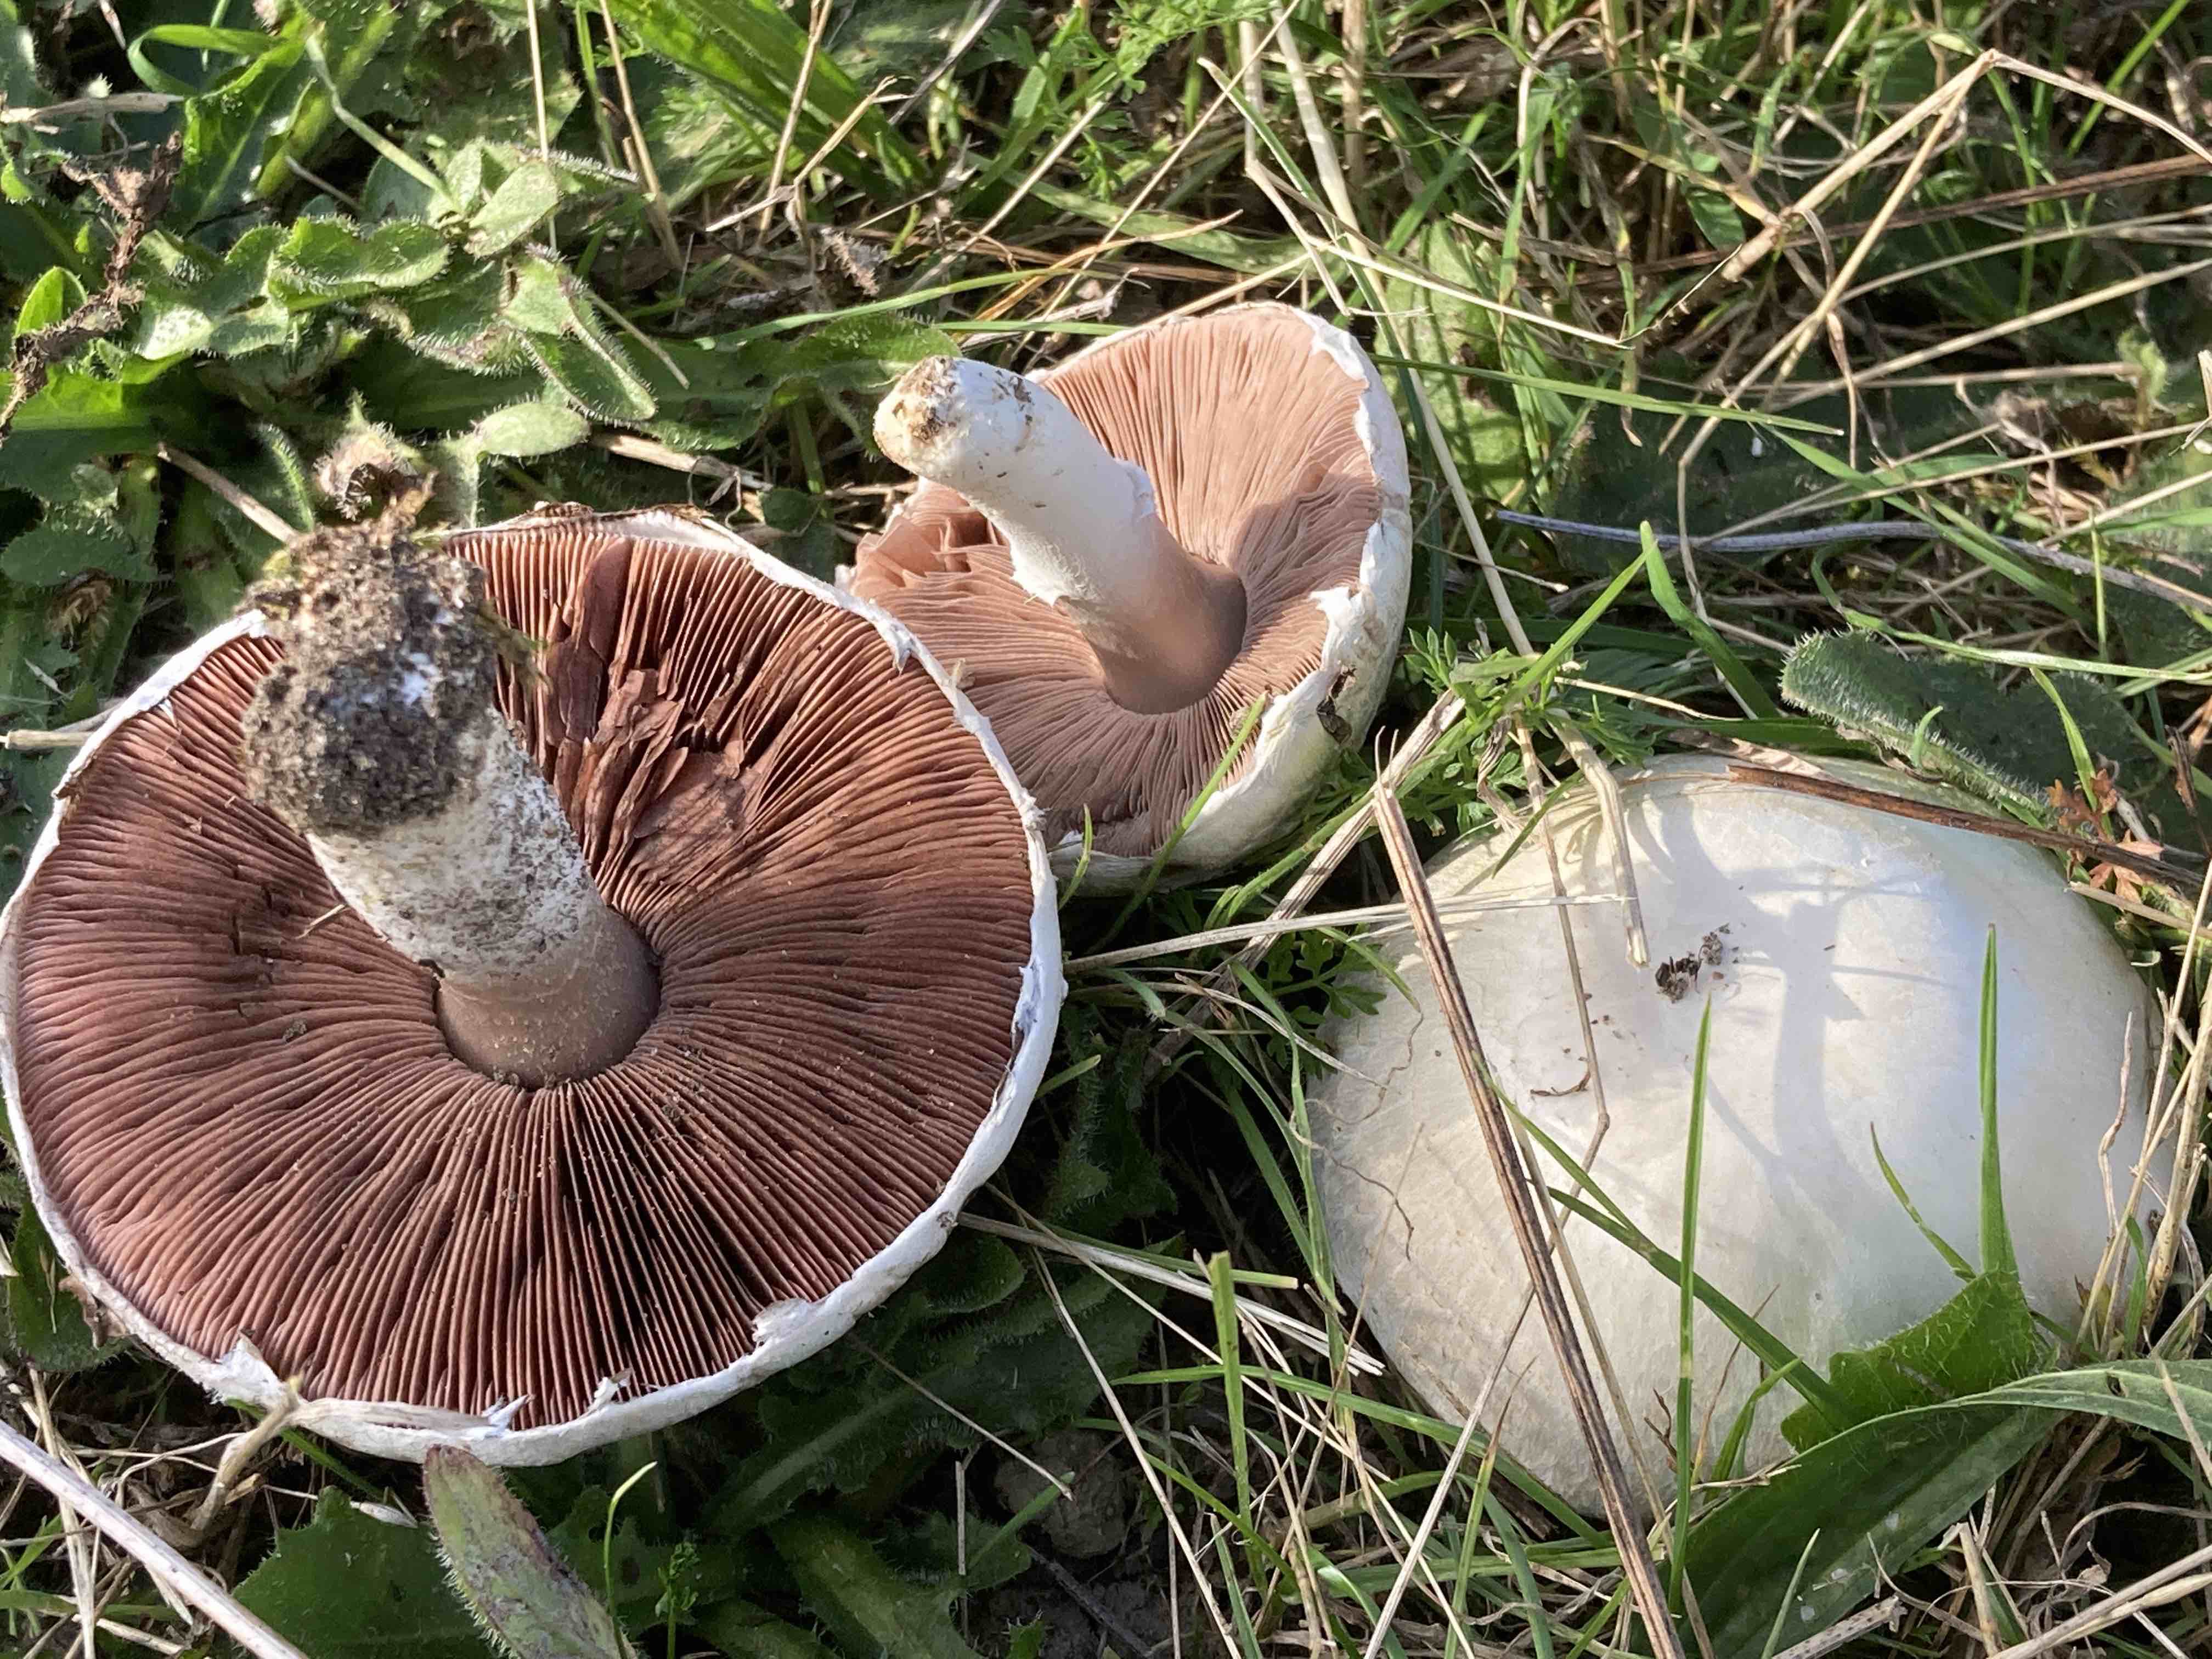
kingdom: Fungi
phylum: Basidiomycota
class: Agaricomycetes
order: Agaricales
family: Agaricaceae
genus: Agaricus
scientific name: Agaricus campestris
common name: mark-champignon
